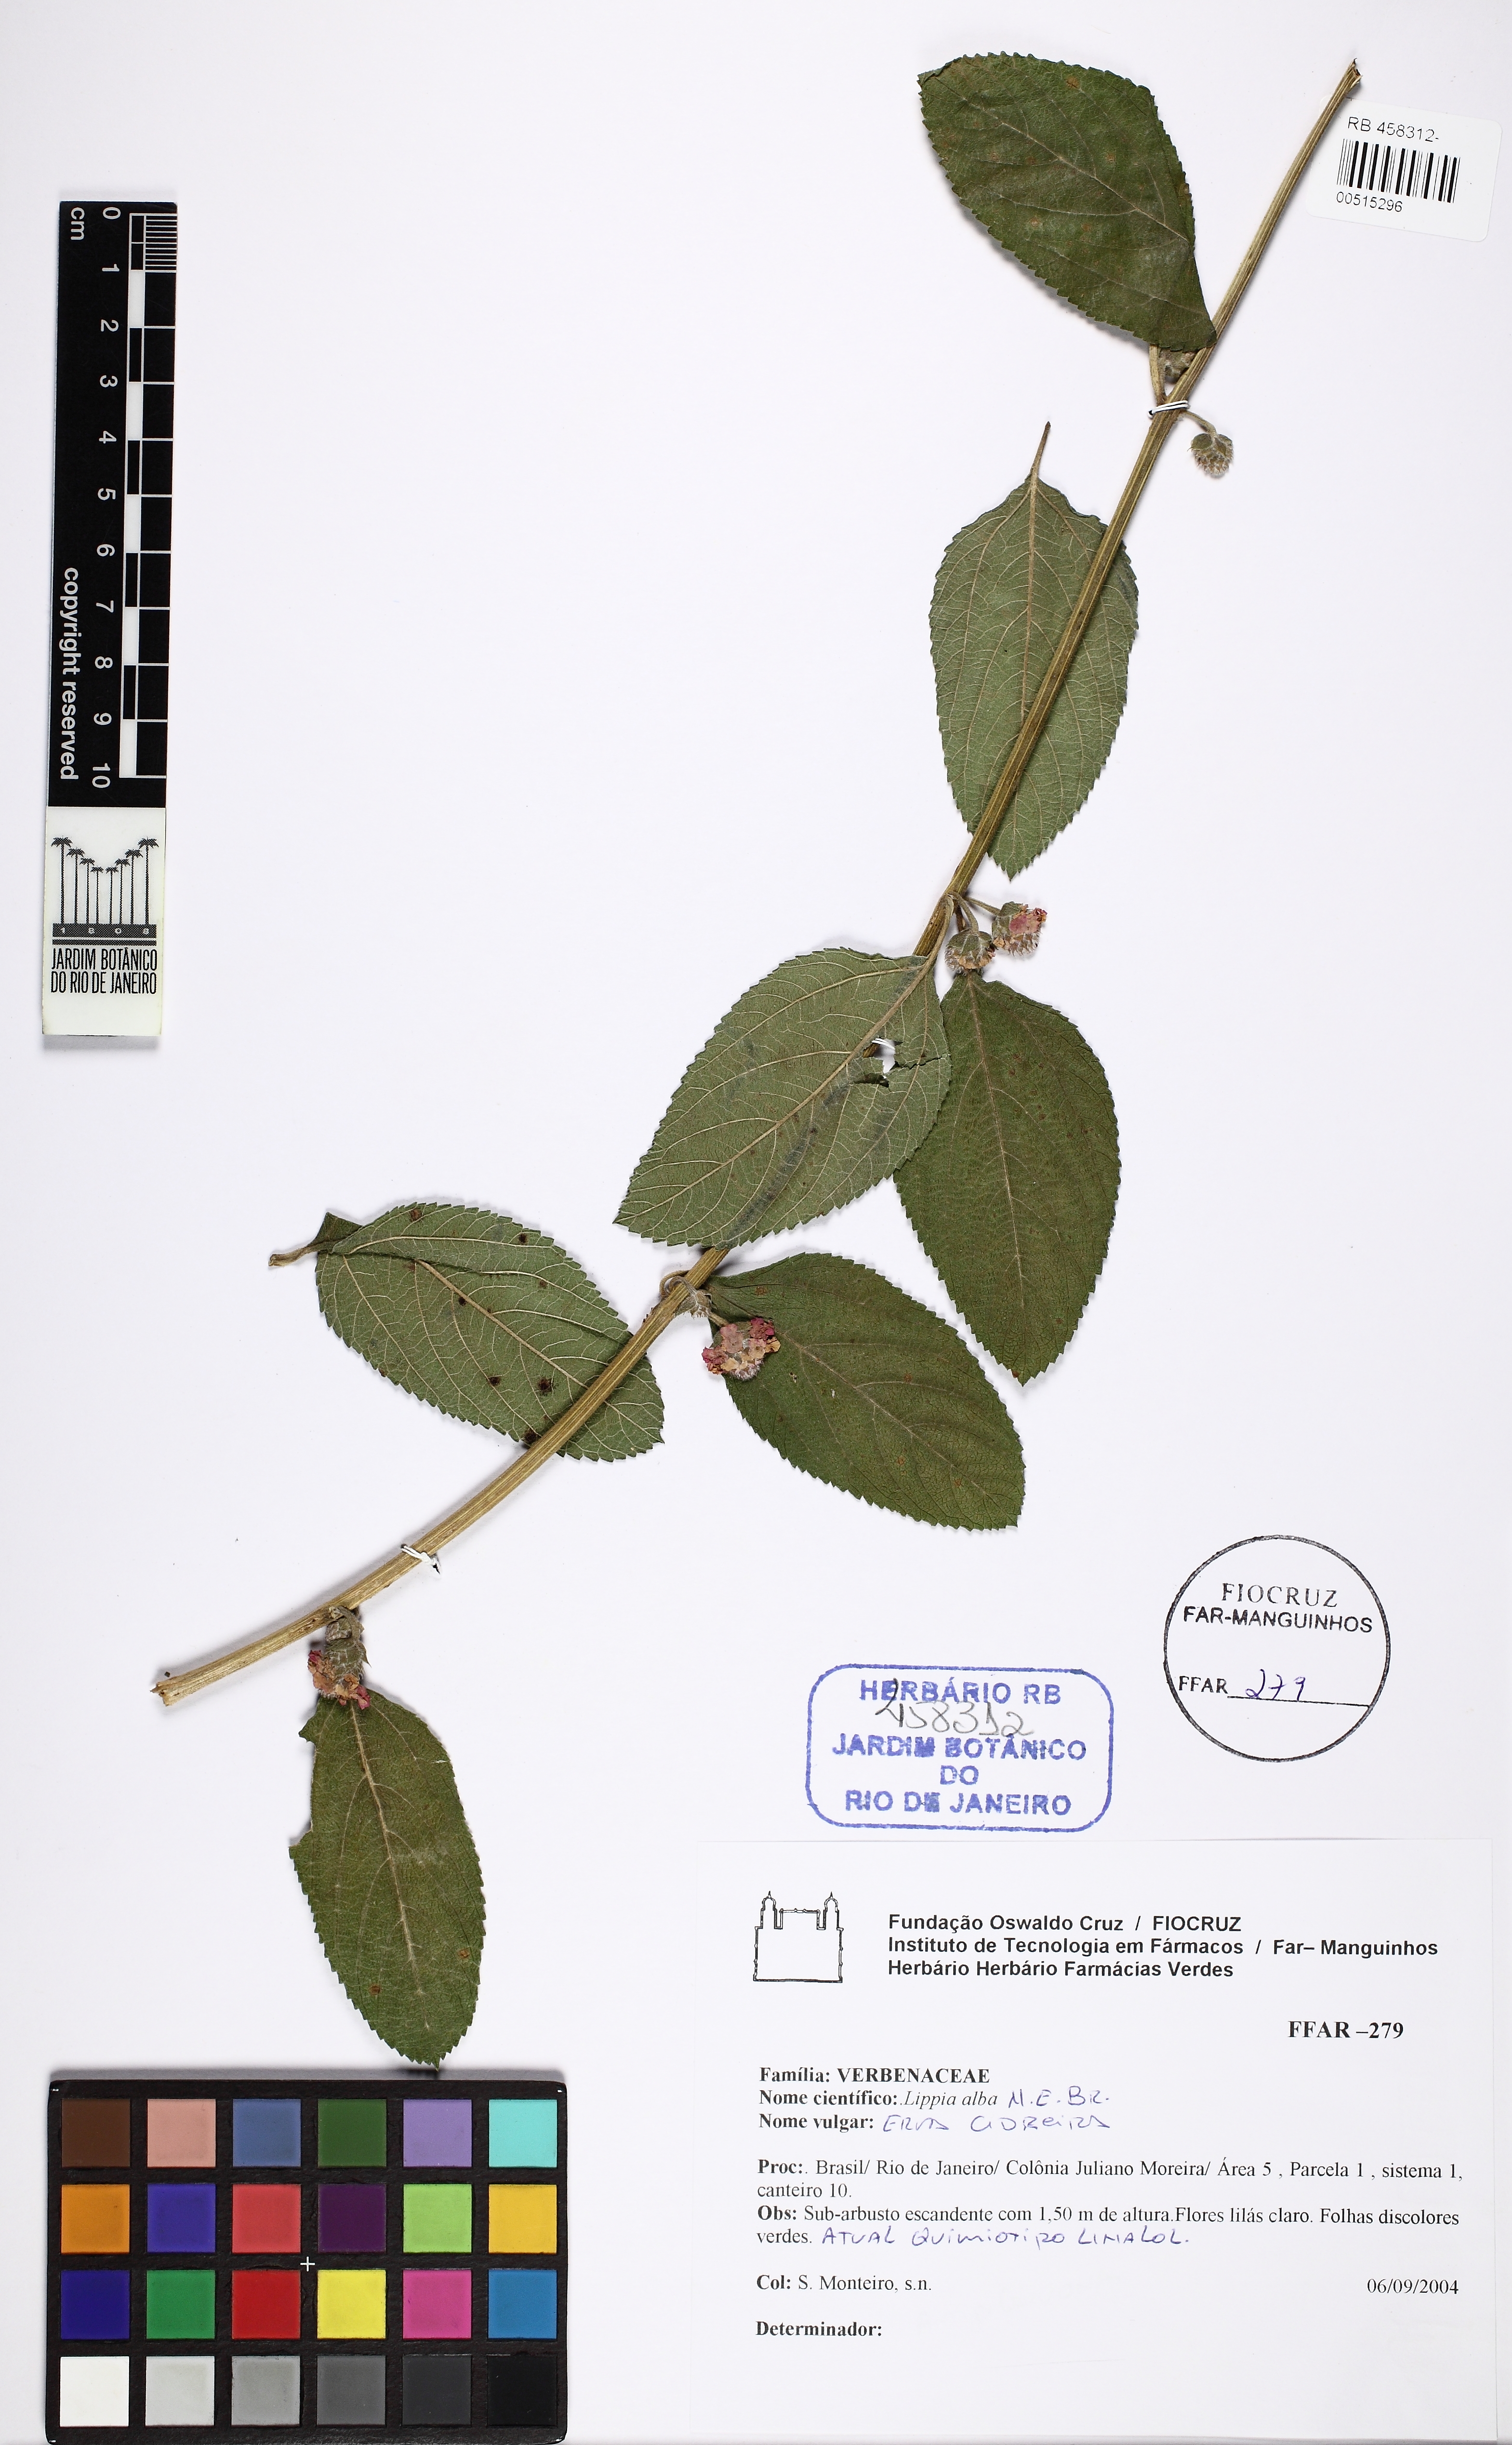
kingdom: Plantae
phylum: Tracheophyta
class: Magnoliopsida
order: Lamiales
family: Verbenaceae
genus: Lippia
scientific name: Lippia alba
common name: Bushy matgrass
